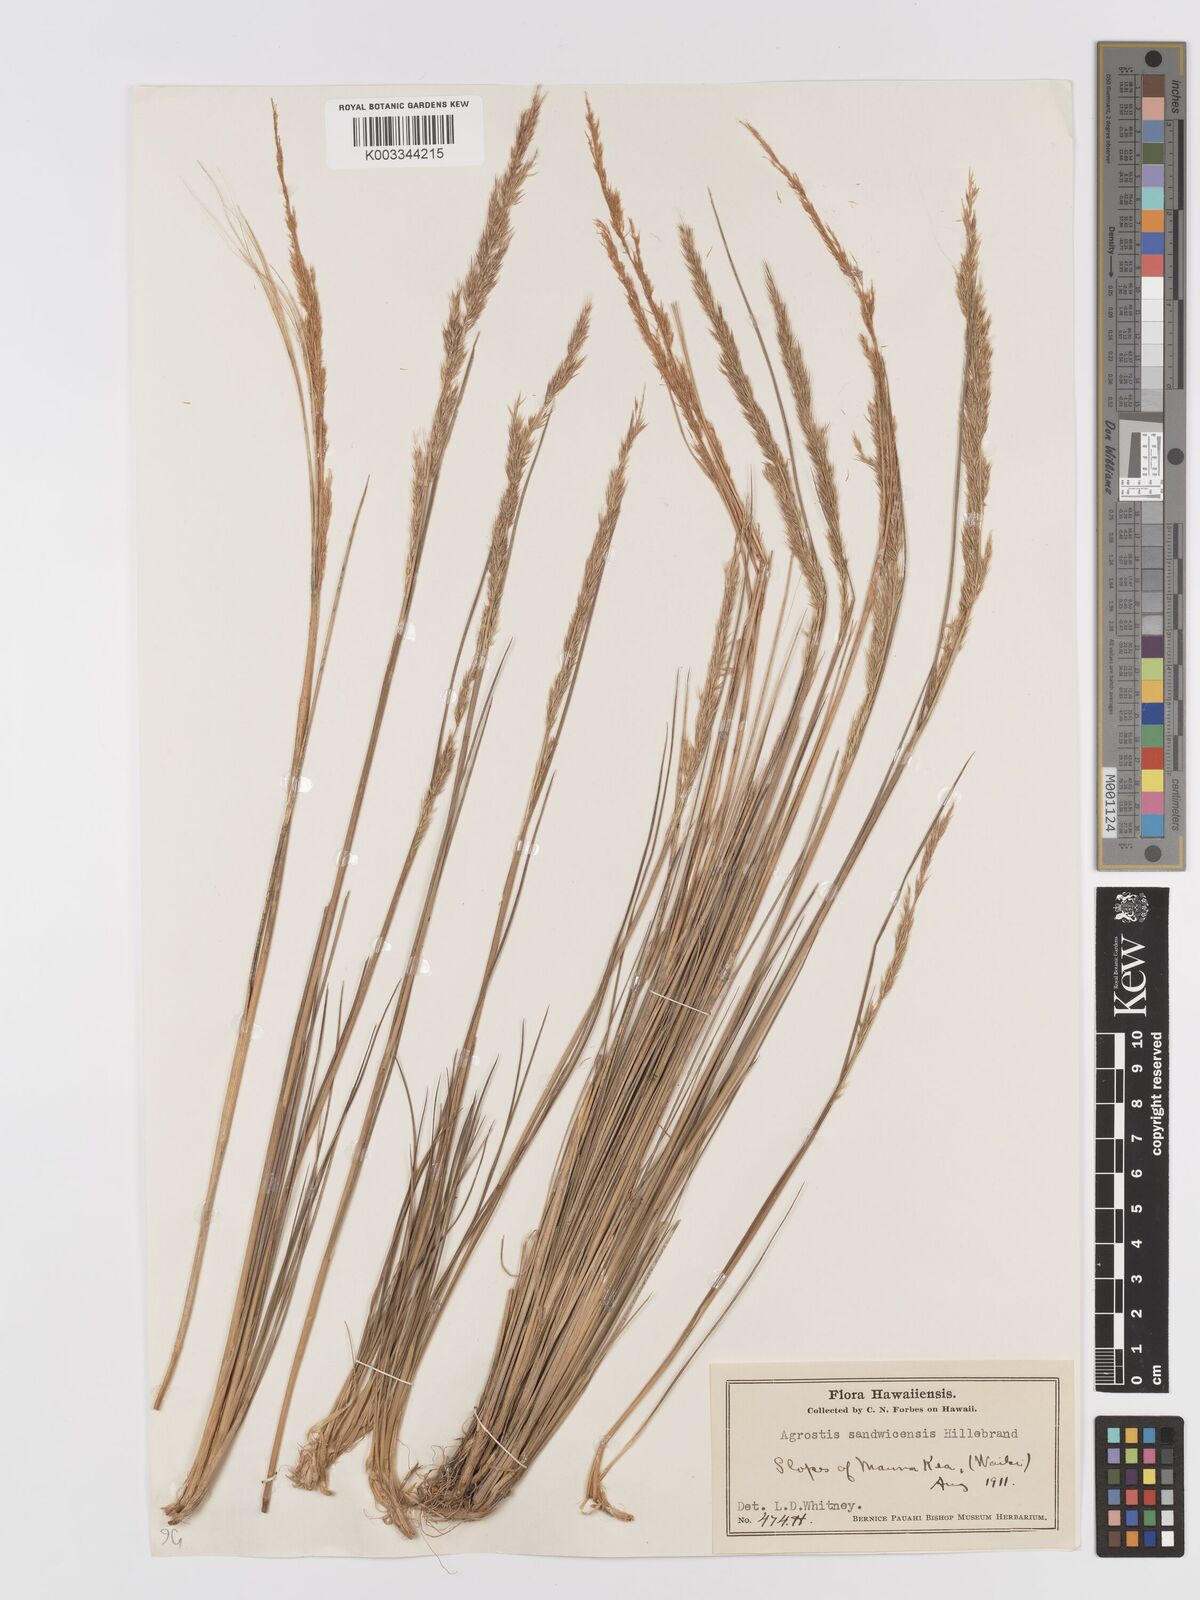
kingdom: Plantae
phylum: Tracheophyta
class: Liliopsida
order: Poales
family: Poaceae
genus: Agrostis
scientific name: Agrostis
